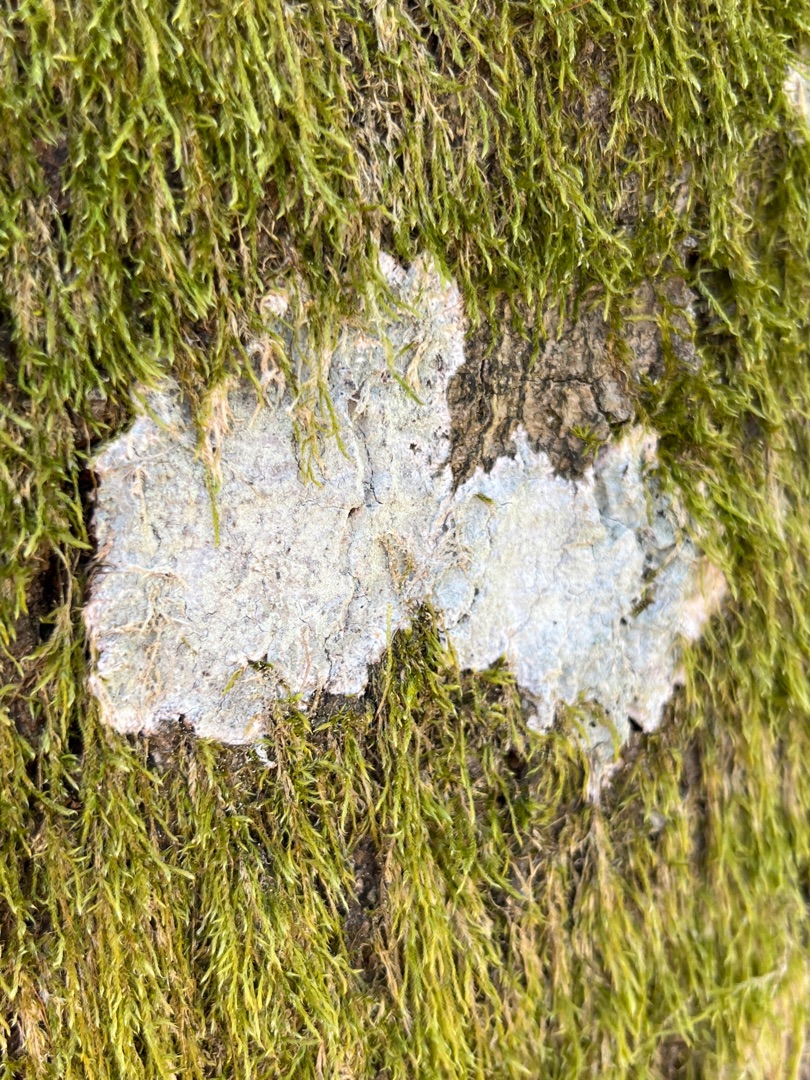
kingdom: Fungi
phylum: Ascomycota
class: Lecanoromycetes
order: Ostropales
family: Phlyctidaceae
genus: Phlyctis
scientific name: Phlyctis argena
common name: Almindelig sølvlav
